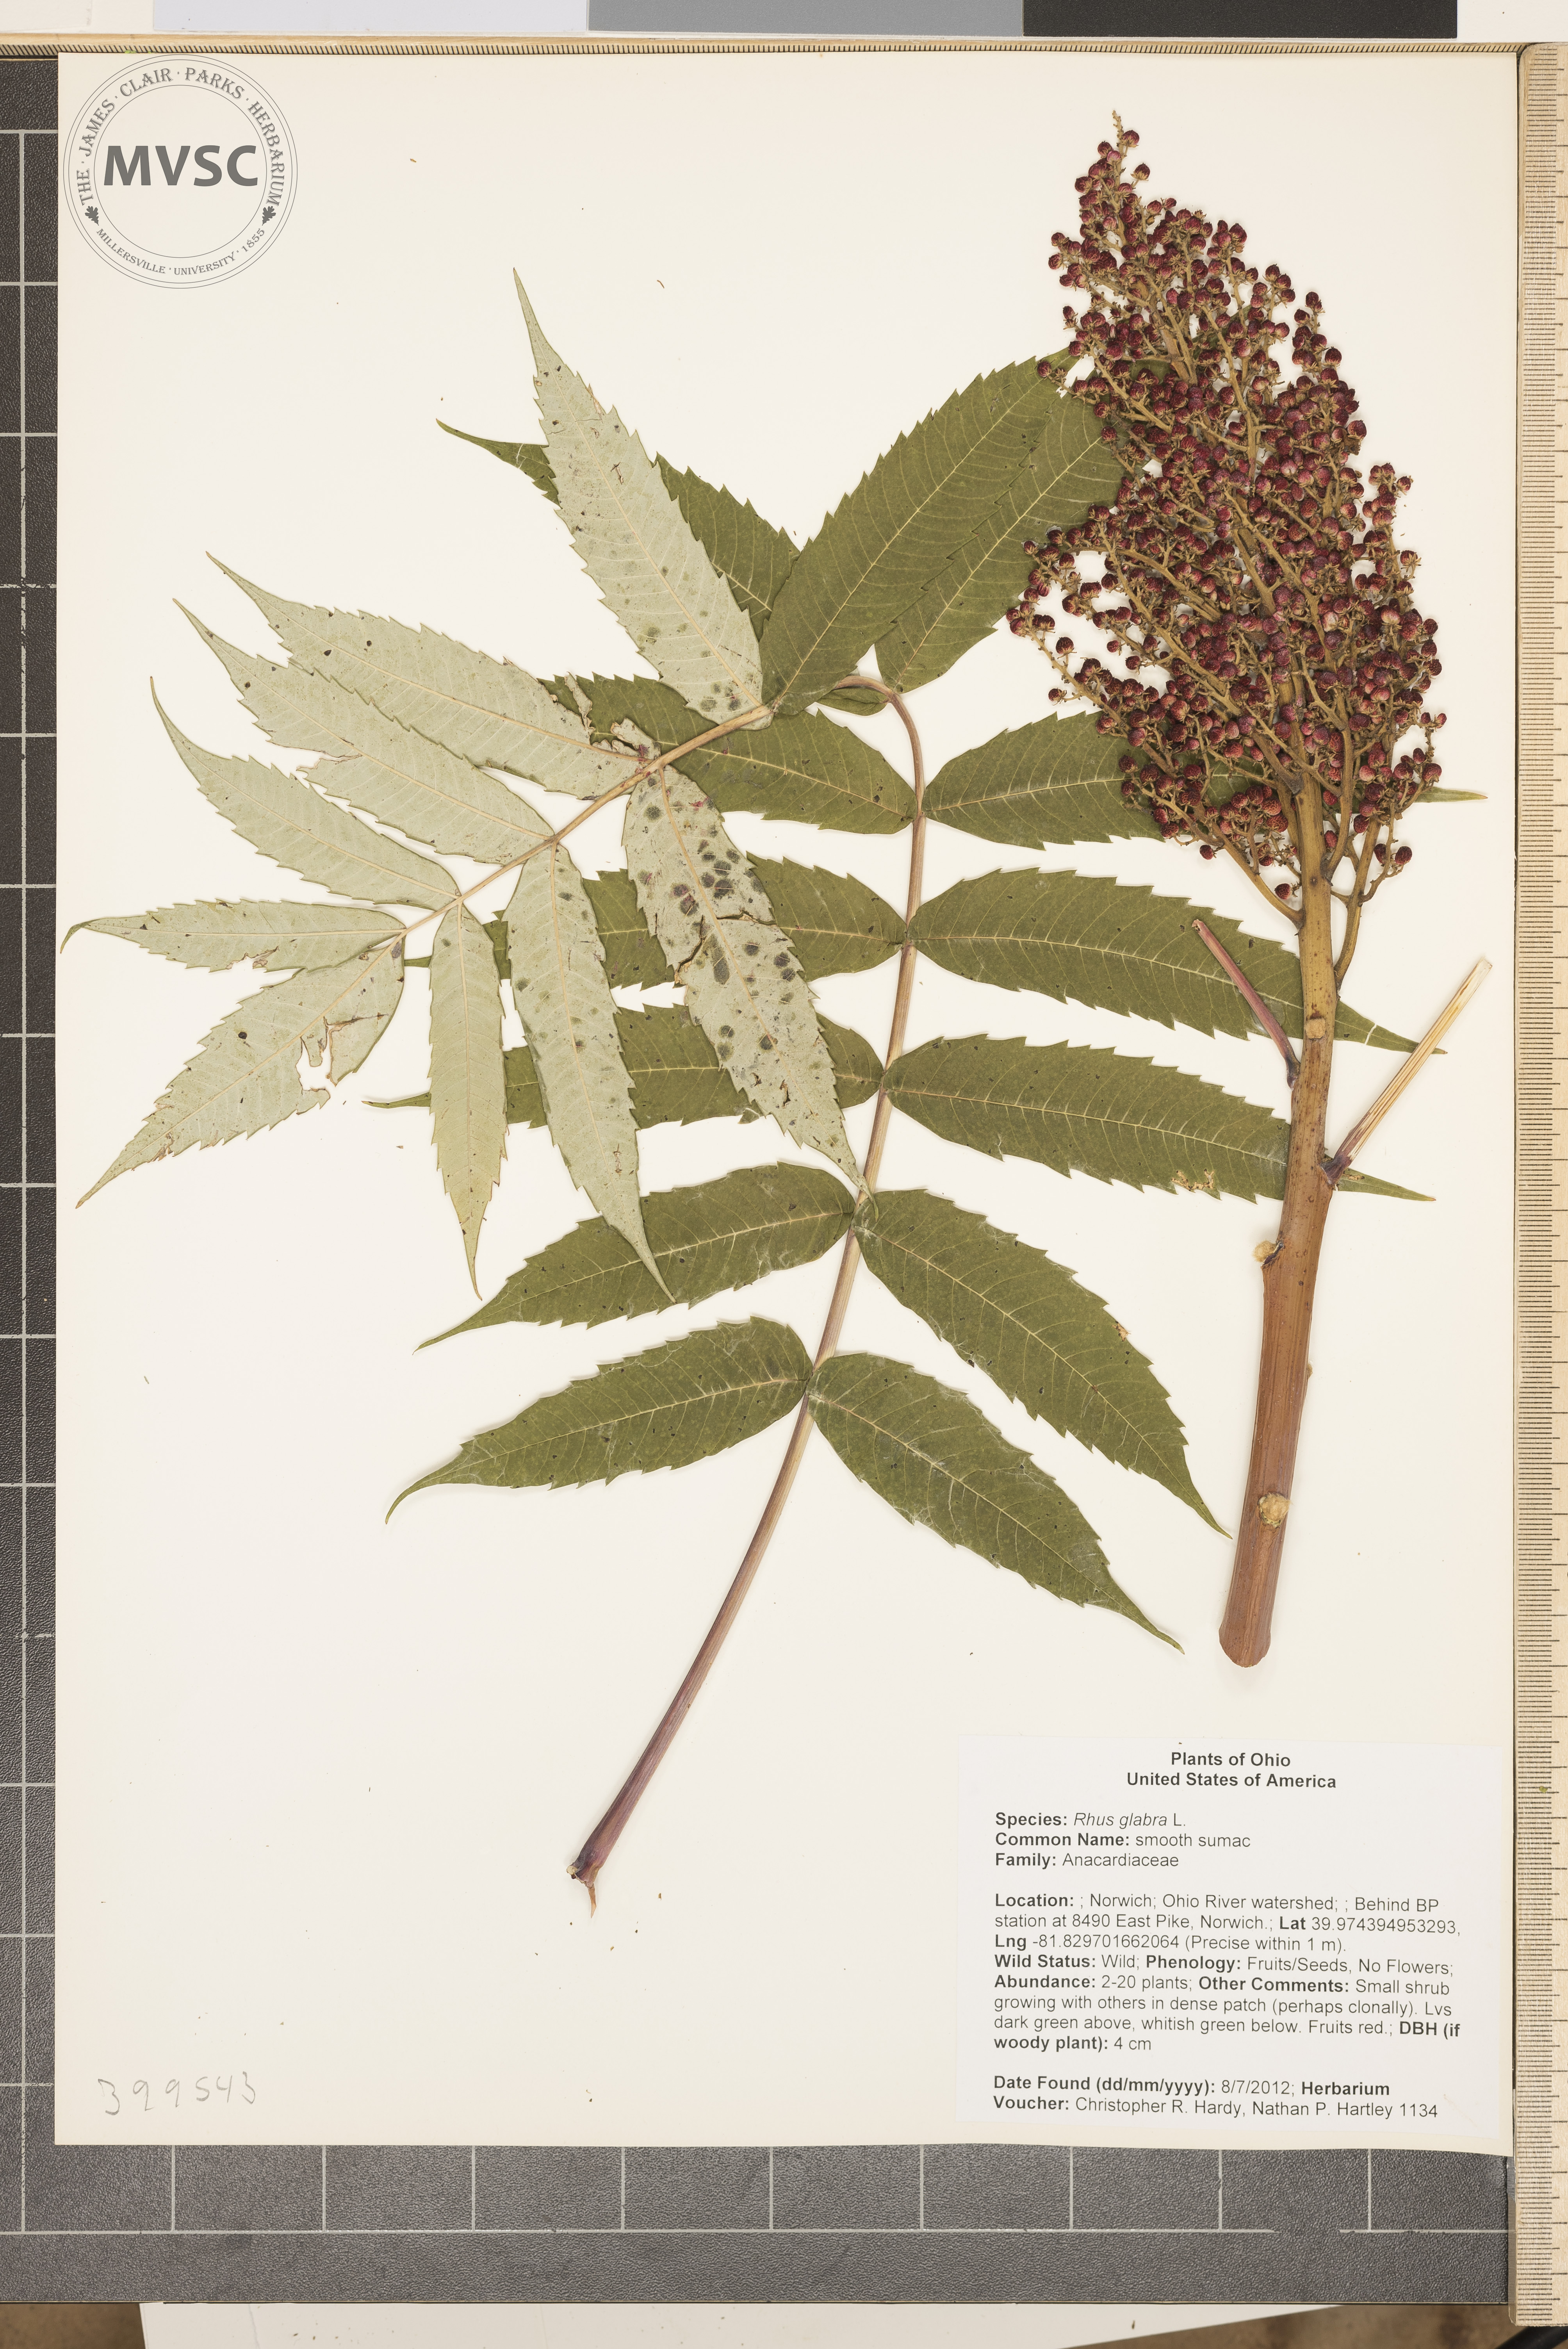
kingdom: Plantae
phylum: Tracheophyta
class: Magnoliopsida
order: Sapindales
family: Anacardiaceae
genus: Rhus
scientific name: Rhus glabra
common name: smooth sumac
